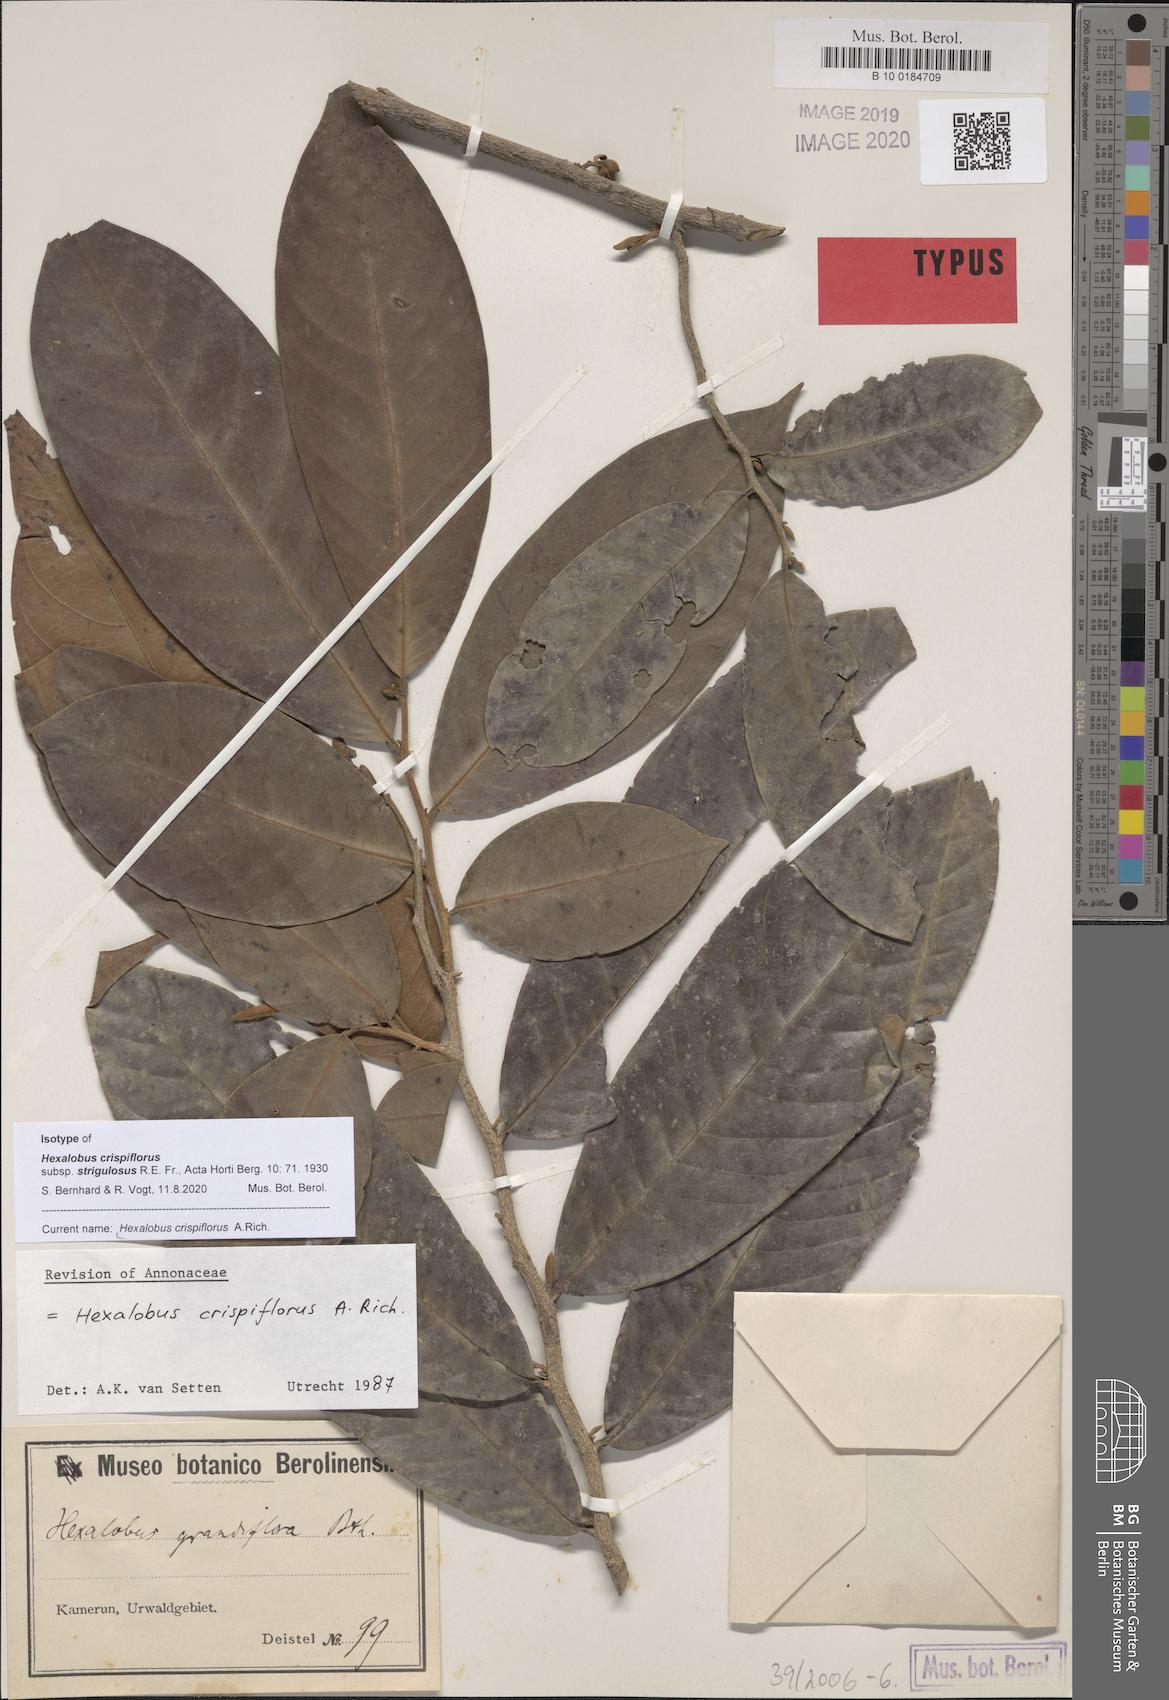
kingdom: Plantae
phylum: Tracheophyta
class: Magnoliopsida
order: Magnoliales
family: Annonaceae
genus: Hexalobus
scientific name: Hexalobus crispiflorus
